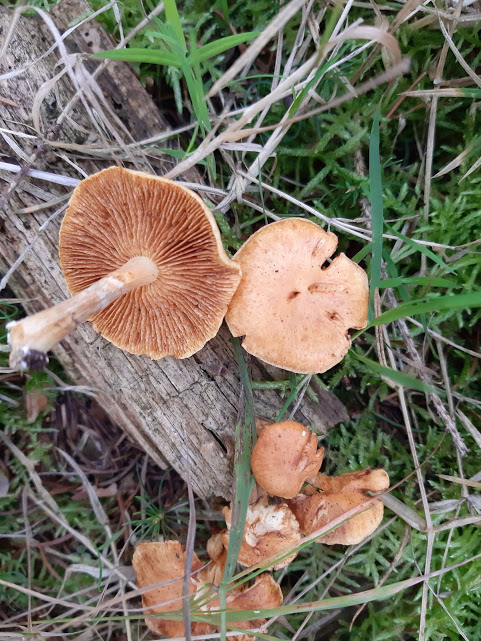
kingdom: Fungi
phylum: Basidiomycota
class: Agaricomycetes
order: Agaricales
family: Hymenogastraceae
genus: Gymnopilus
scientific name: Gymnopilus penetrans
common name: plettet flammehat
